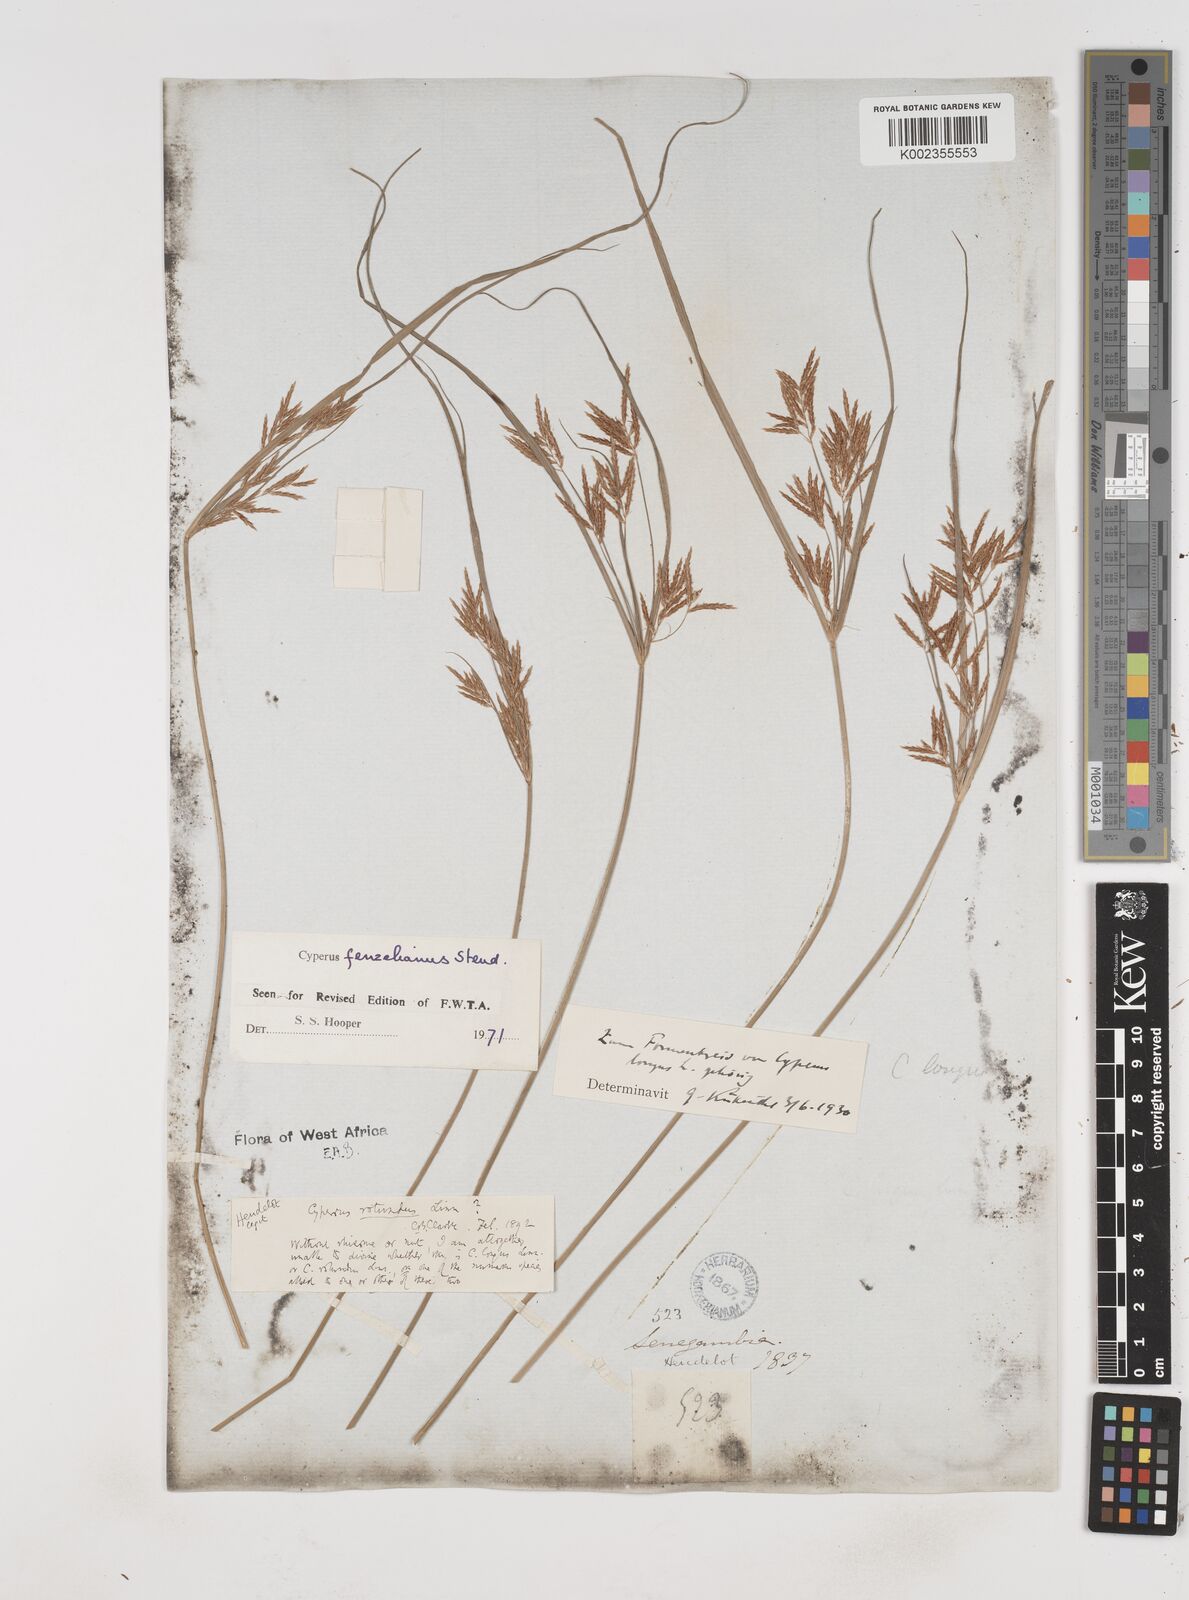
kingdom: Plantae
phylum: Tracheophyta
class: Liliopsida
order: Poales
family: Cyperaceae
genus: Cyperus
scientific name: Cyperus longus
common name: Galingale
